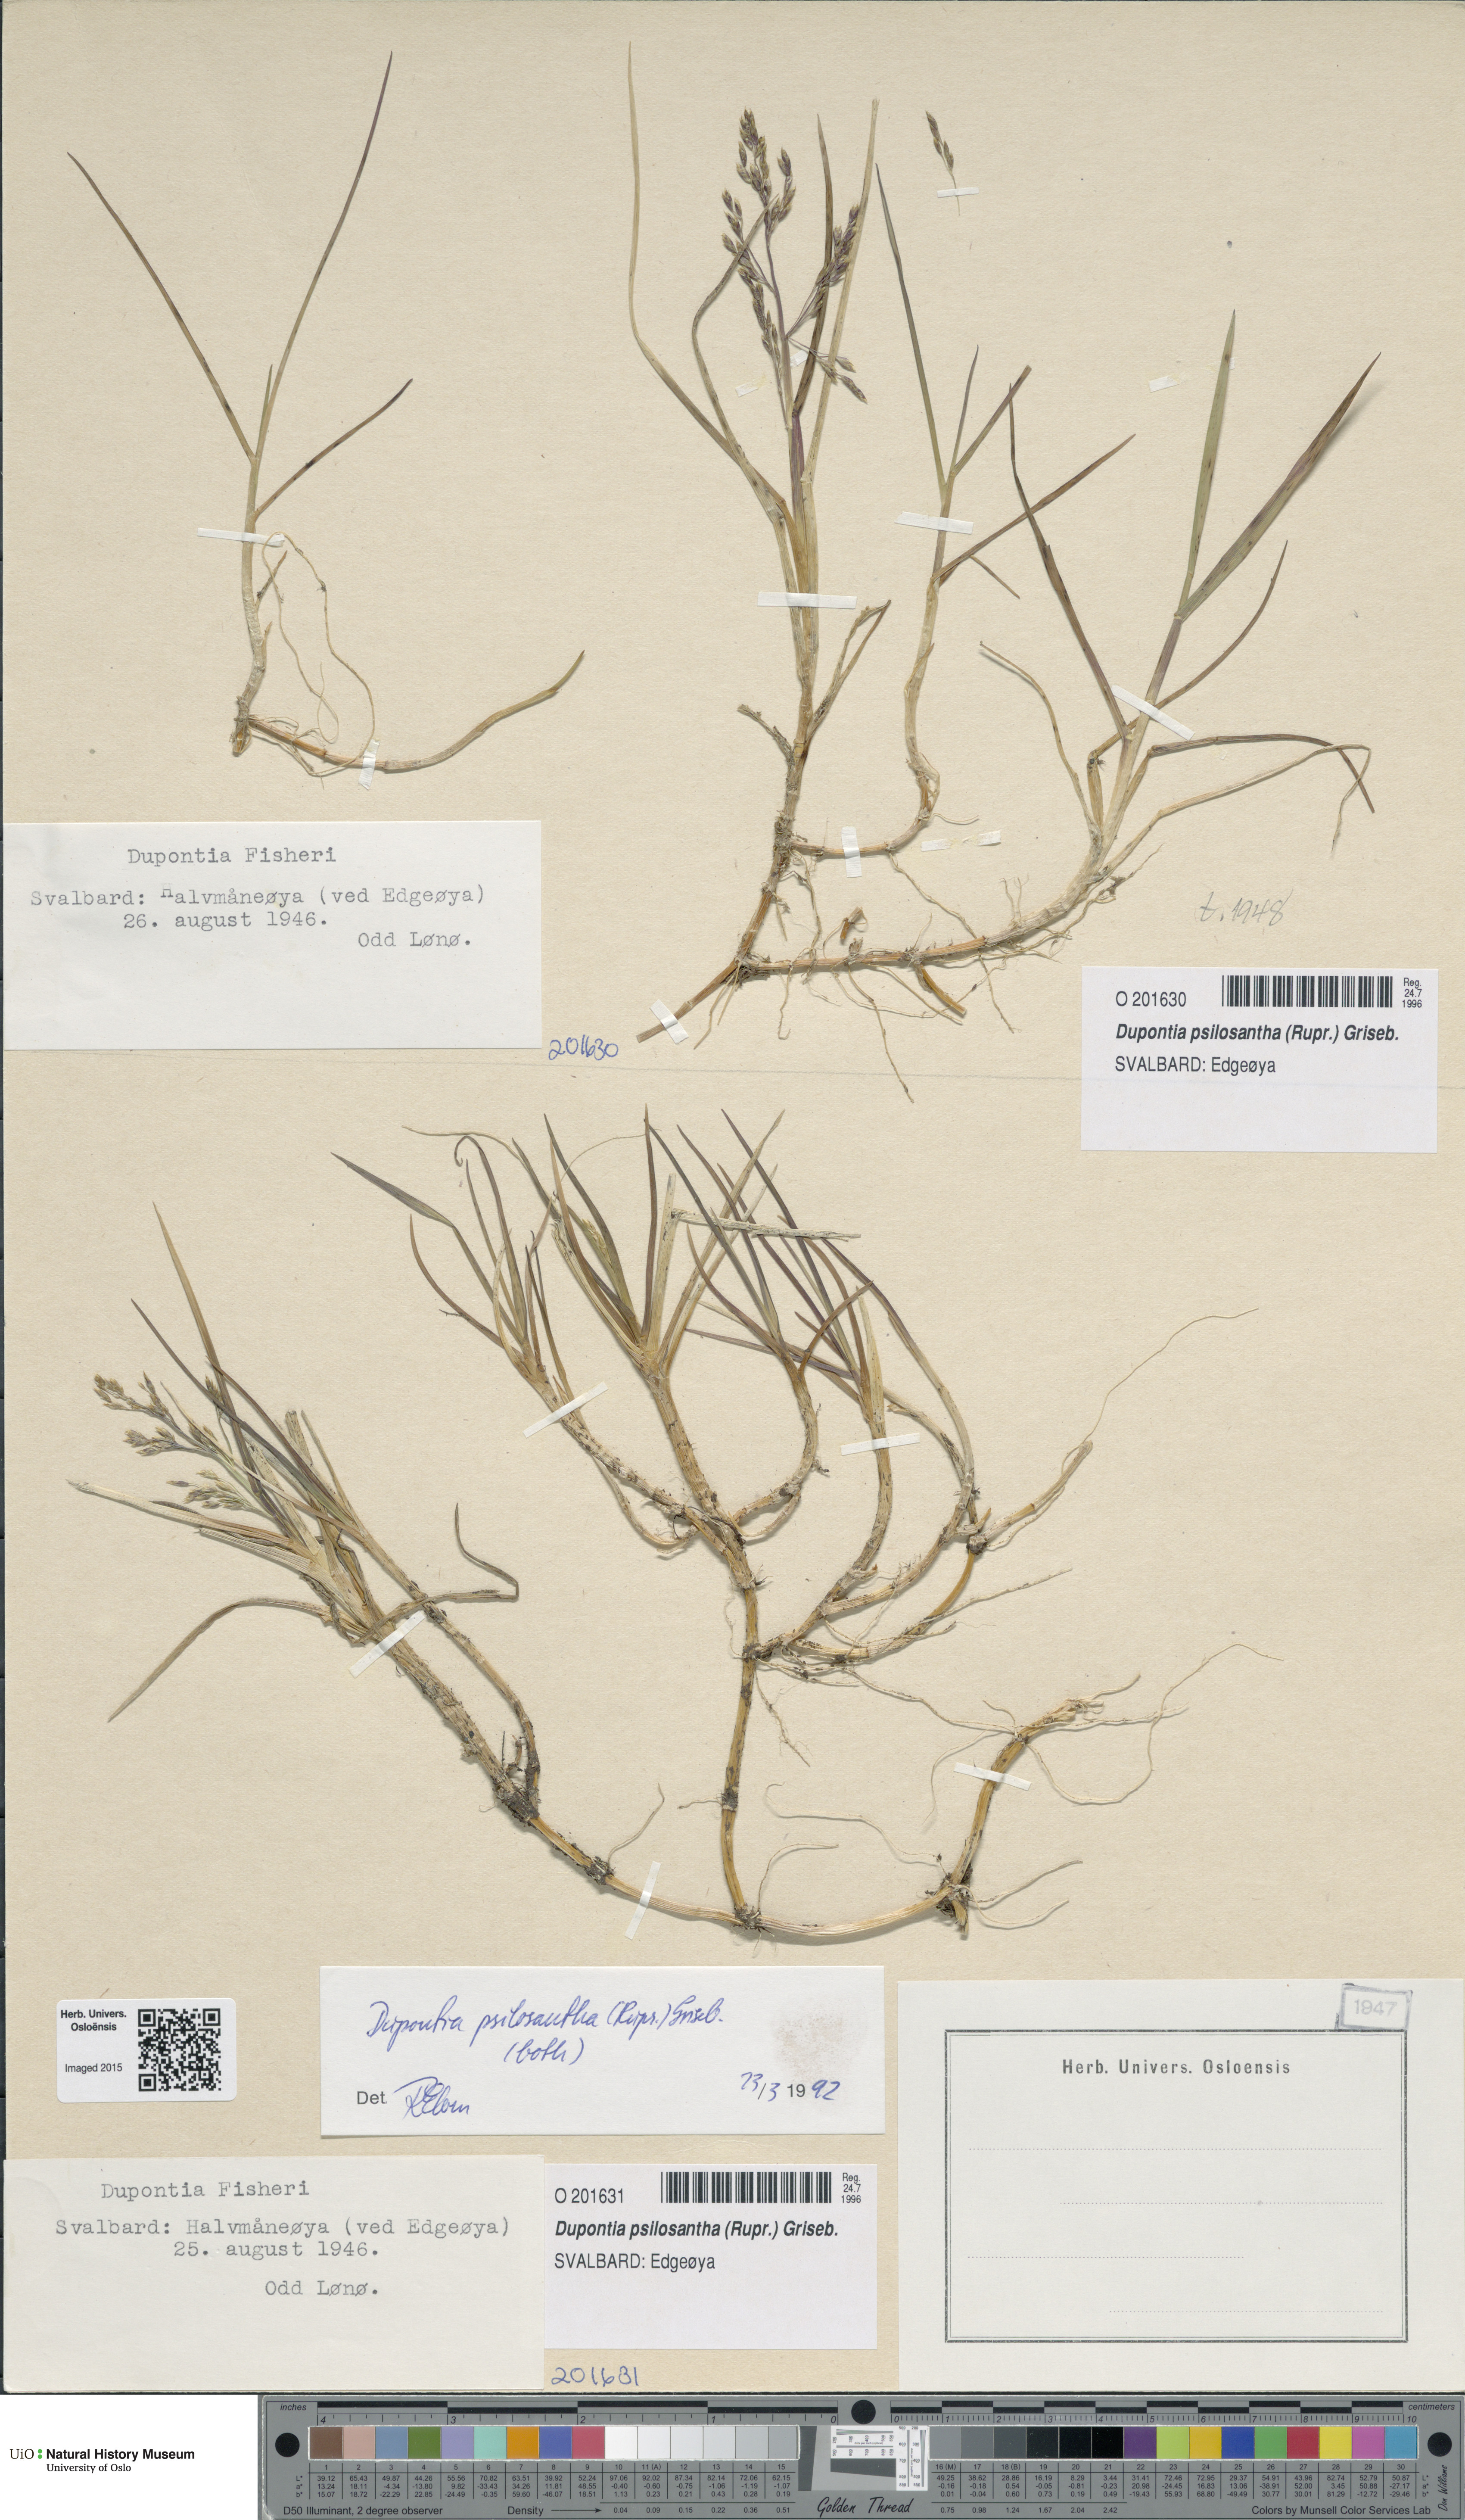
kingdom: Plantae
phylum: Tracheophyta
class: Liliopsida
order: Poales
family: Poaceae
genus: Dupontia
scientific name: Dupontia fisheri
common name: Tundra grass
